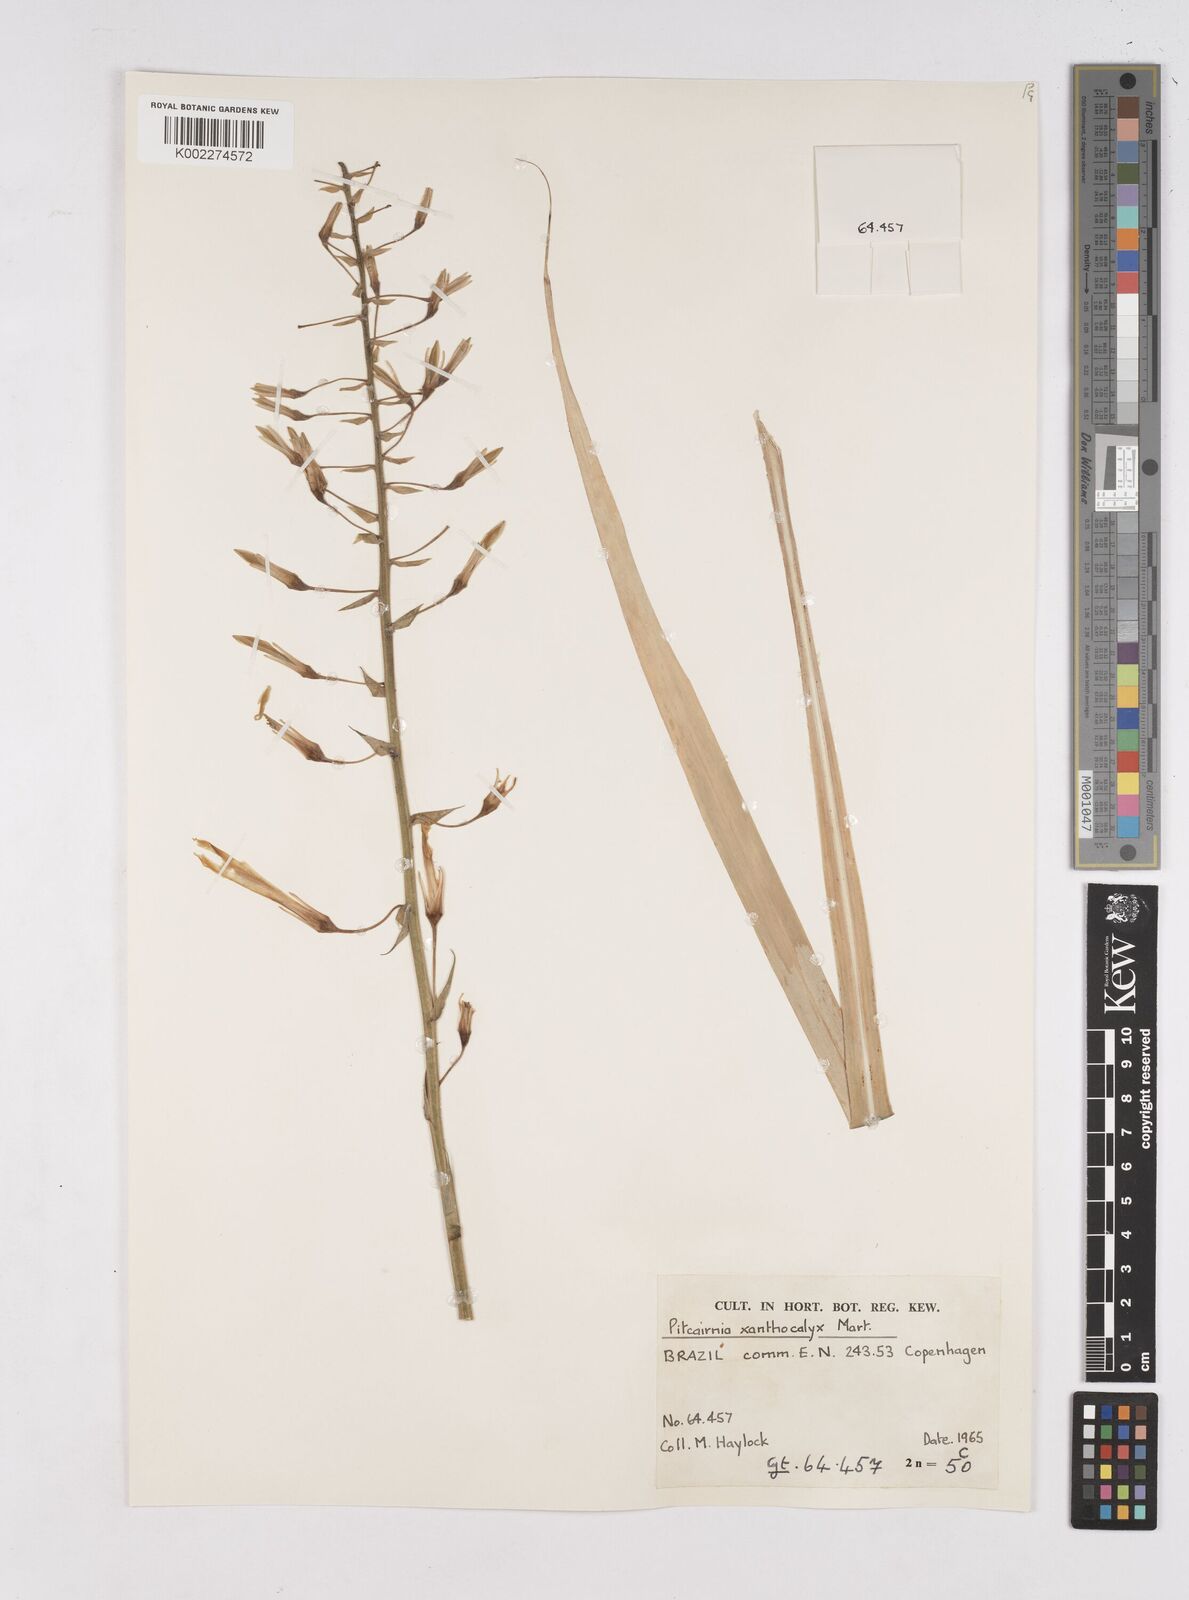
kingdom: Plantae
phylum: Tracheophyta
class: Liliopsida
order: Poales
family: Bromeliaceae
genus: Pitcairnia
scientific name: Pitcairnia xanthocalyx
